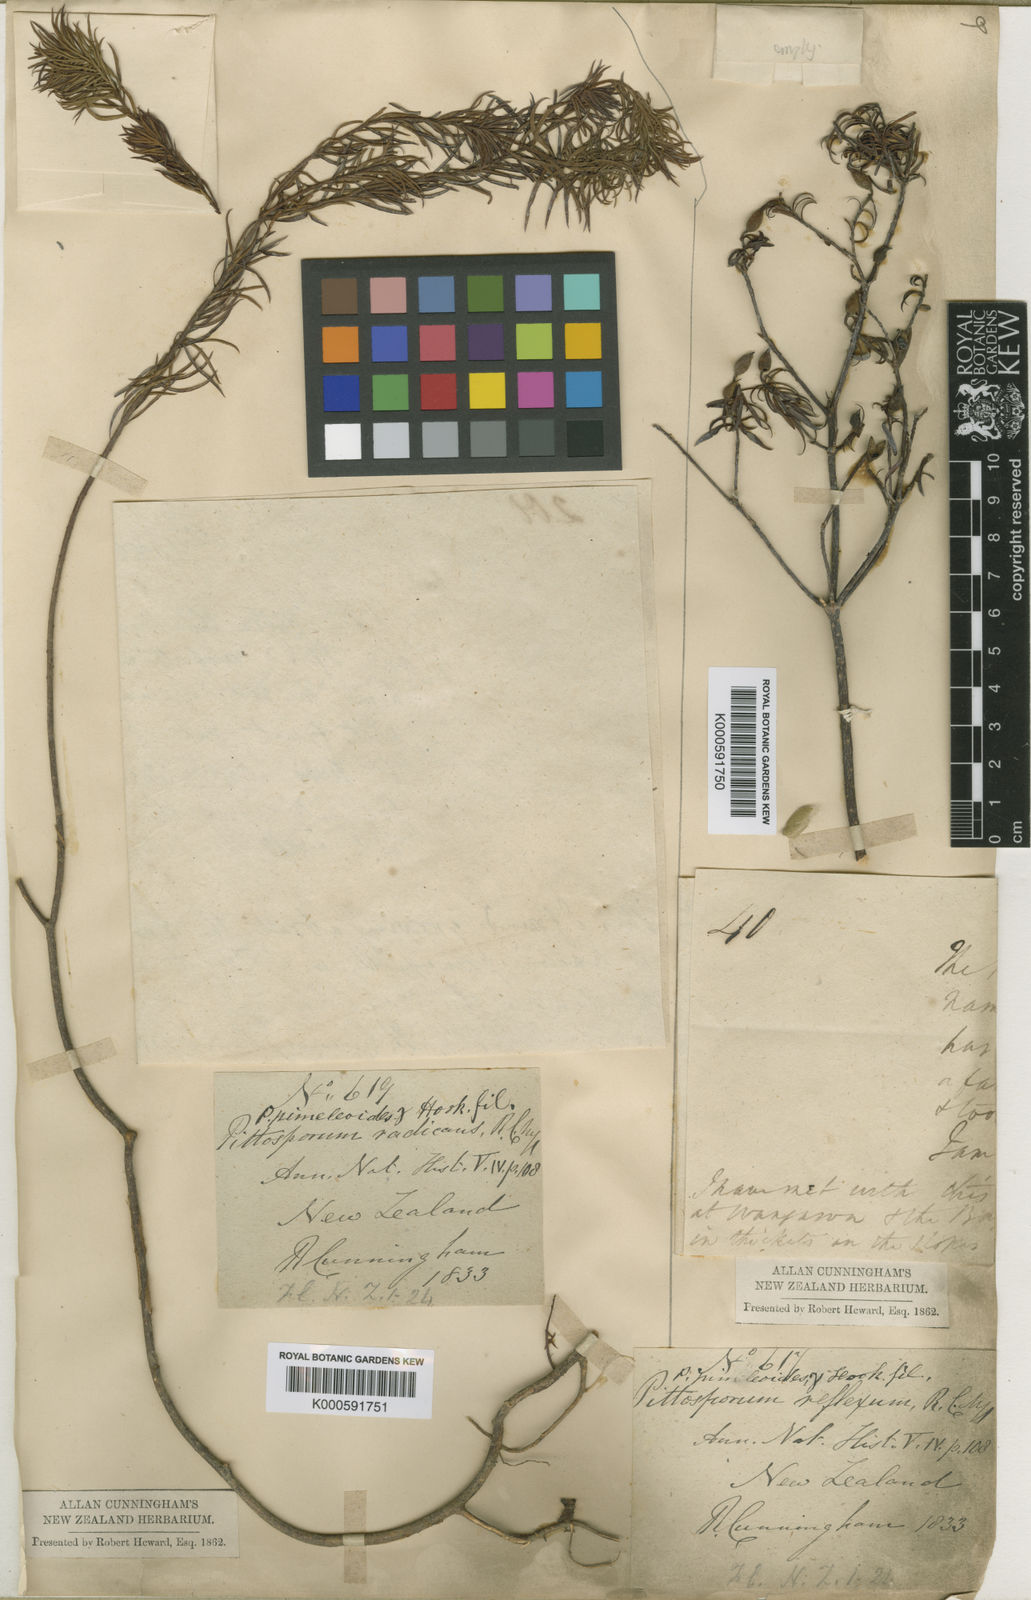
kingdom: Plantae
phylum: Tracheophyta
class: Magnoliopsida
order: Apiales
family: Pittosporaceae
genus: Pittosporum
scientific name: Pittosporum pimeleoides
